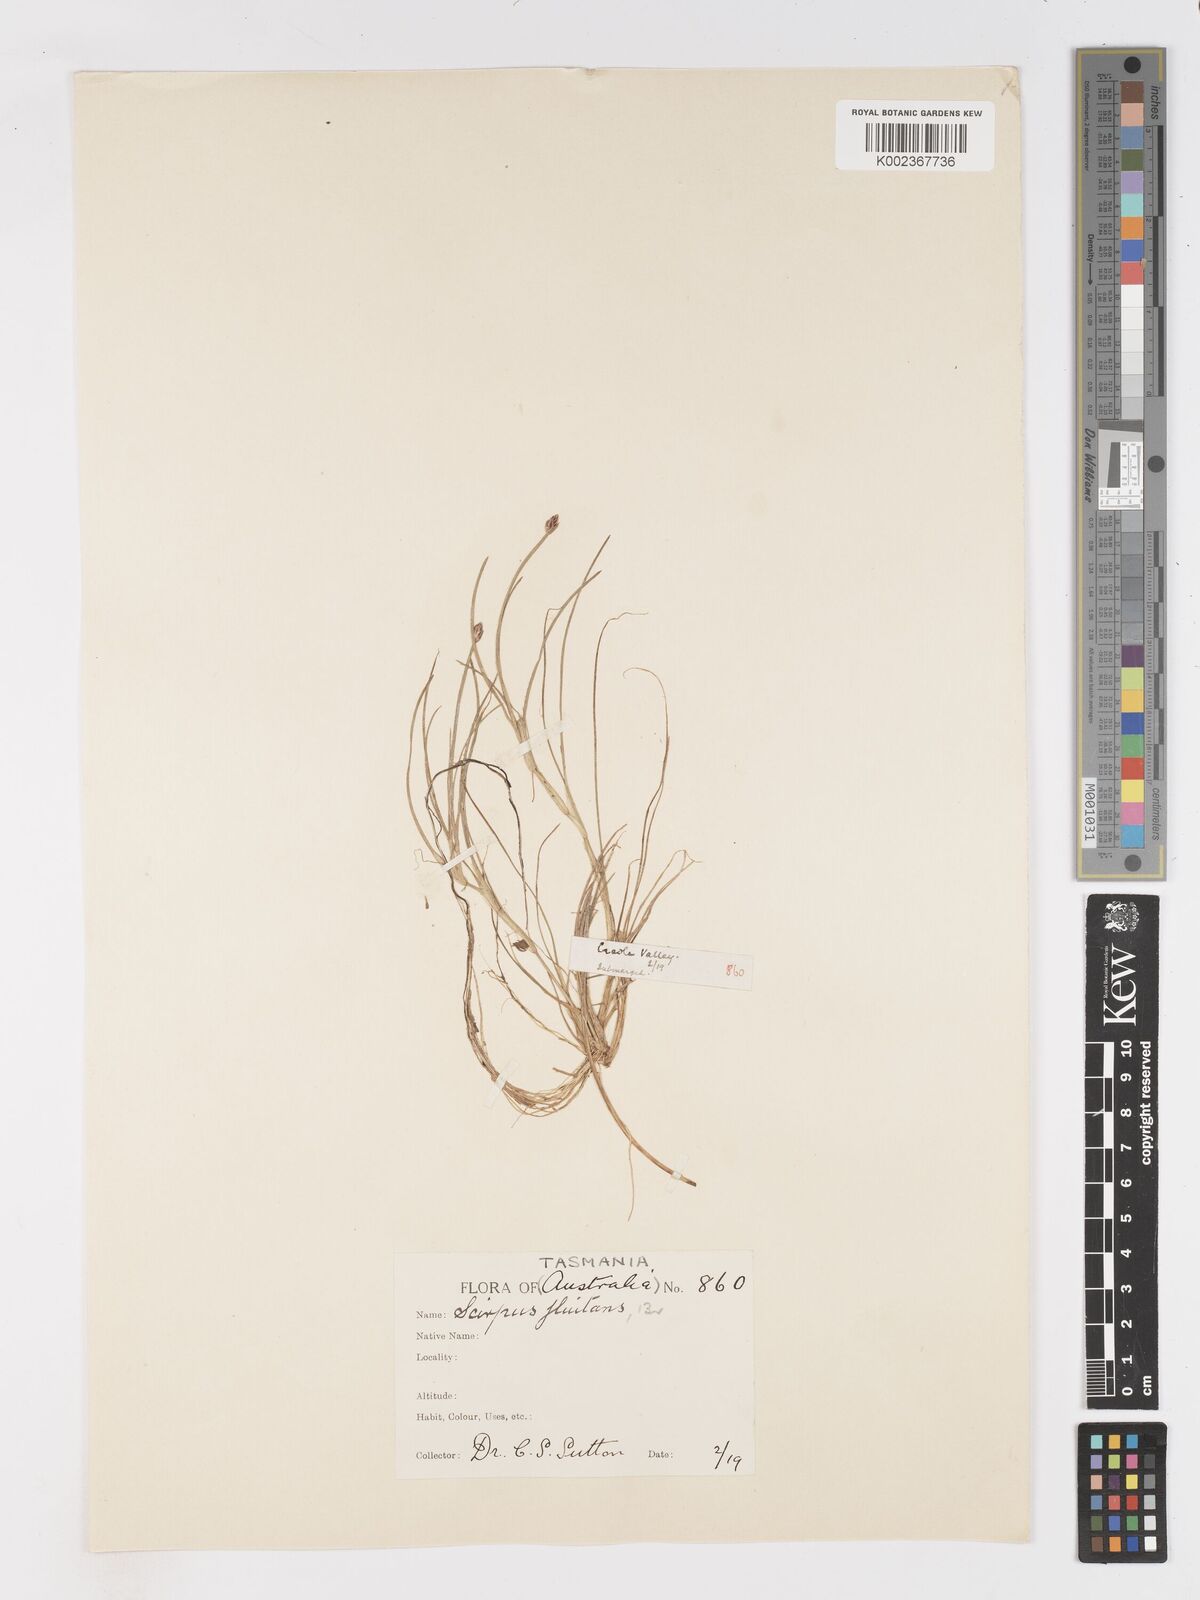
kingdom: Plantae
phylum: Tracheophyta
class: Liliopsida
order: Poales
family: Cyperaceae
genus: Isolepis
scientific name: Isolepis crassiuscula
